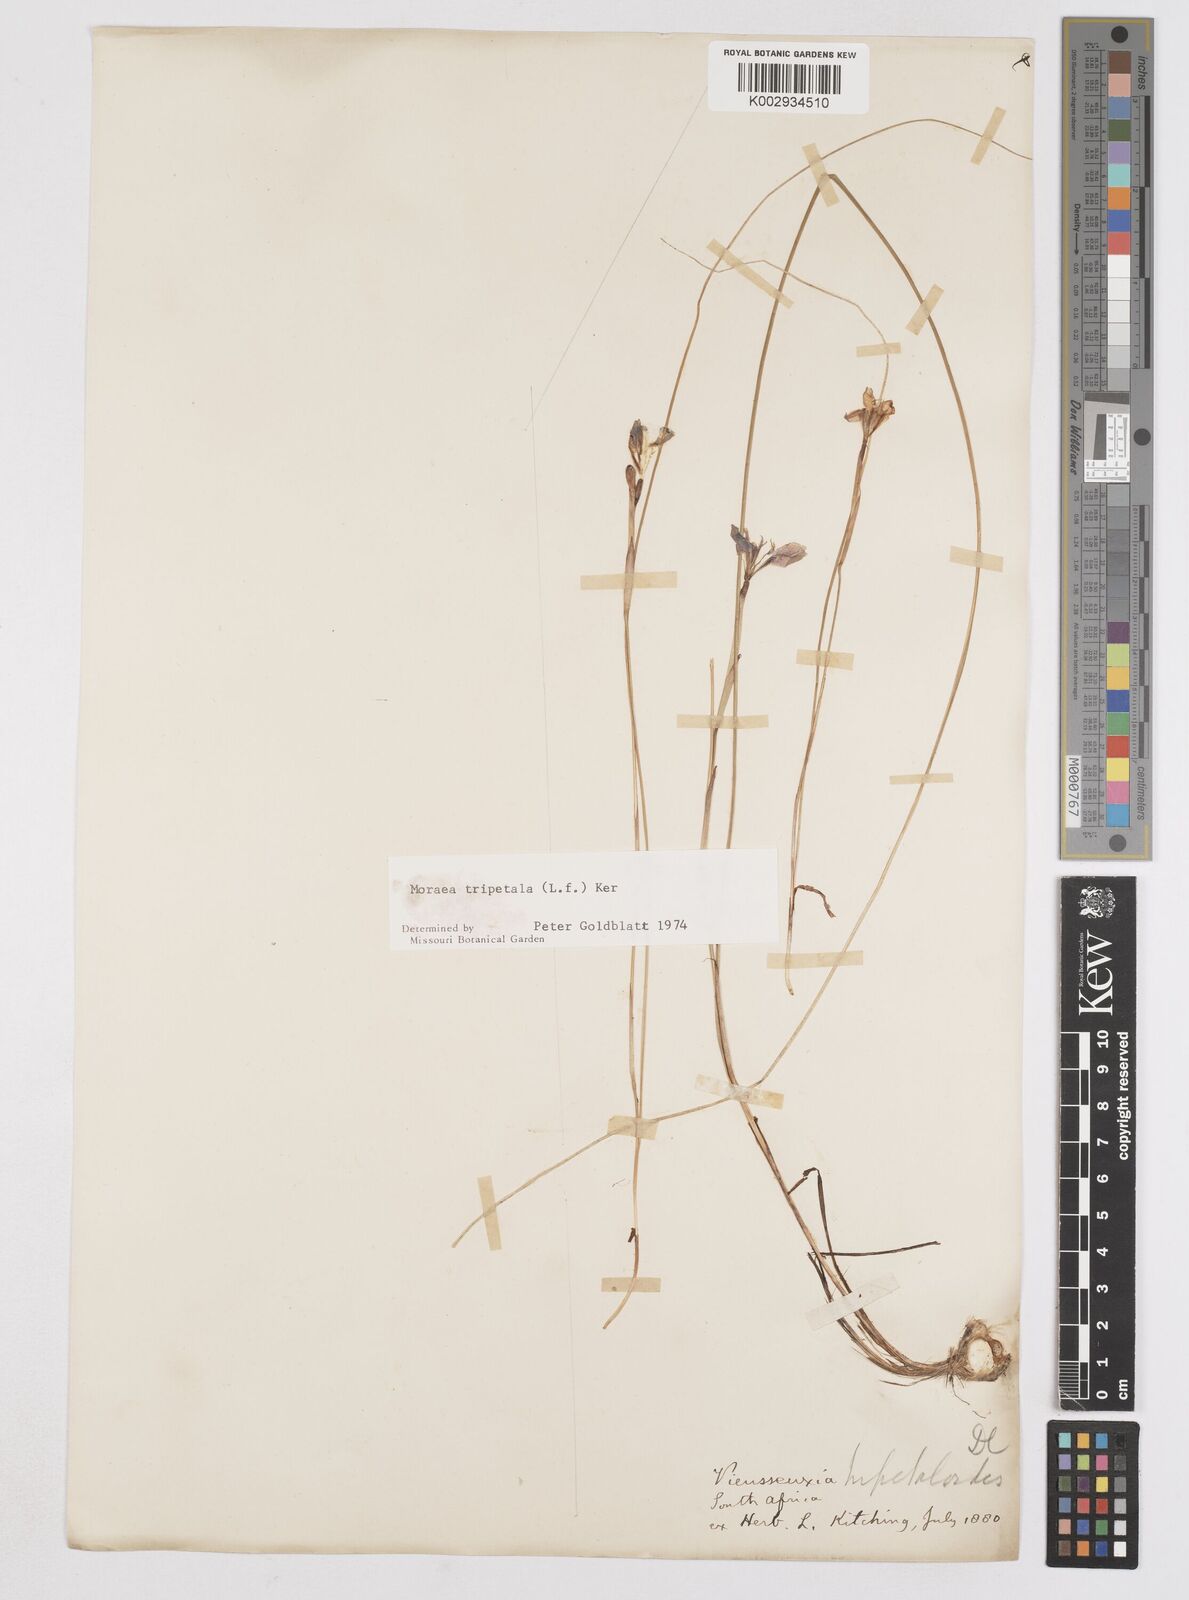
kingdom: Plantae
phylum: Tracheophyta
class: Liliopsida
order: Asparagales
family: Iridaceae
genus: Moraea
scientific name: Moraea tripetala
